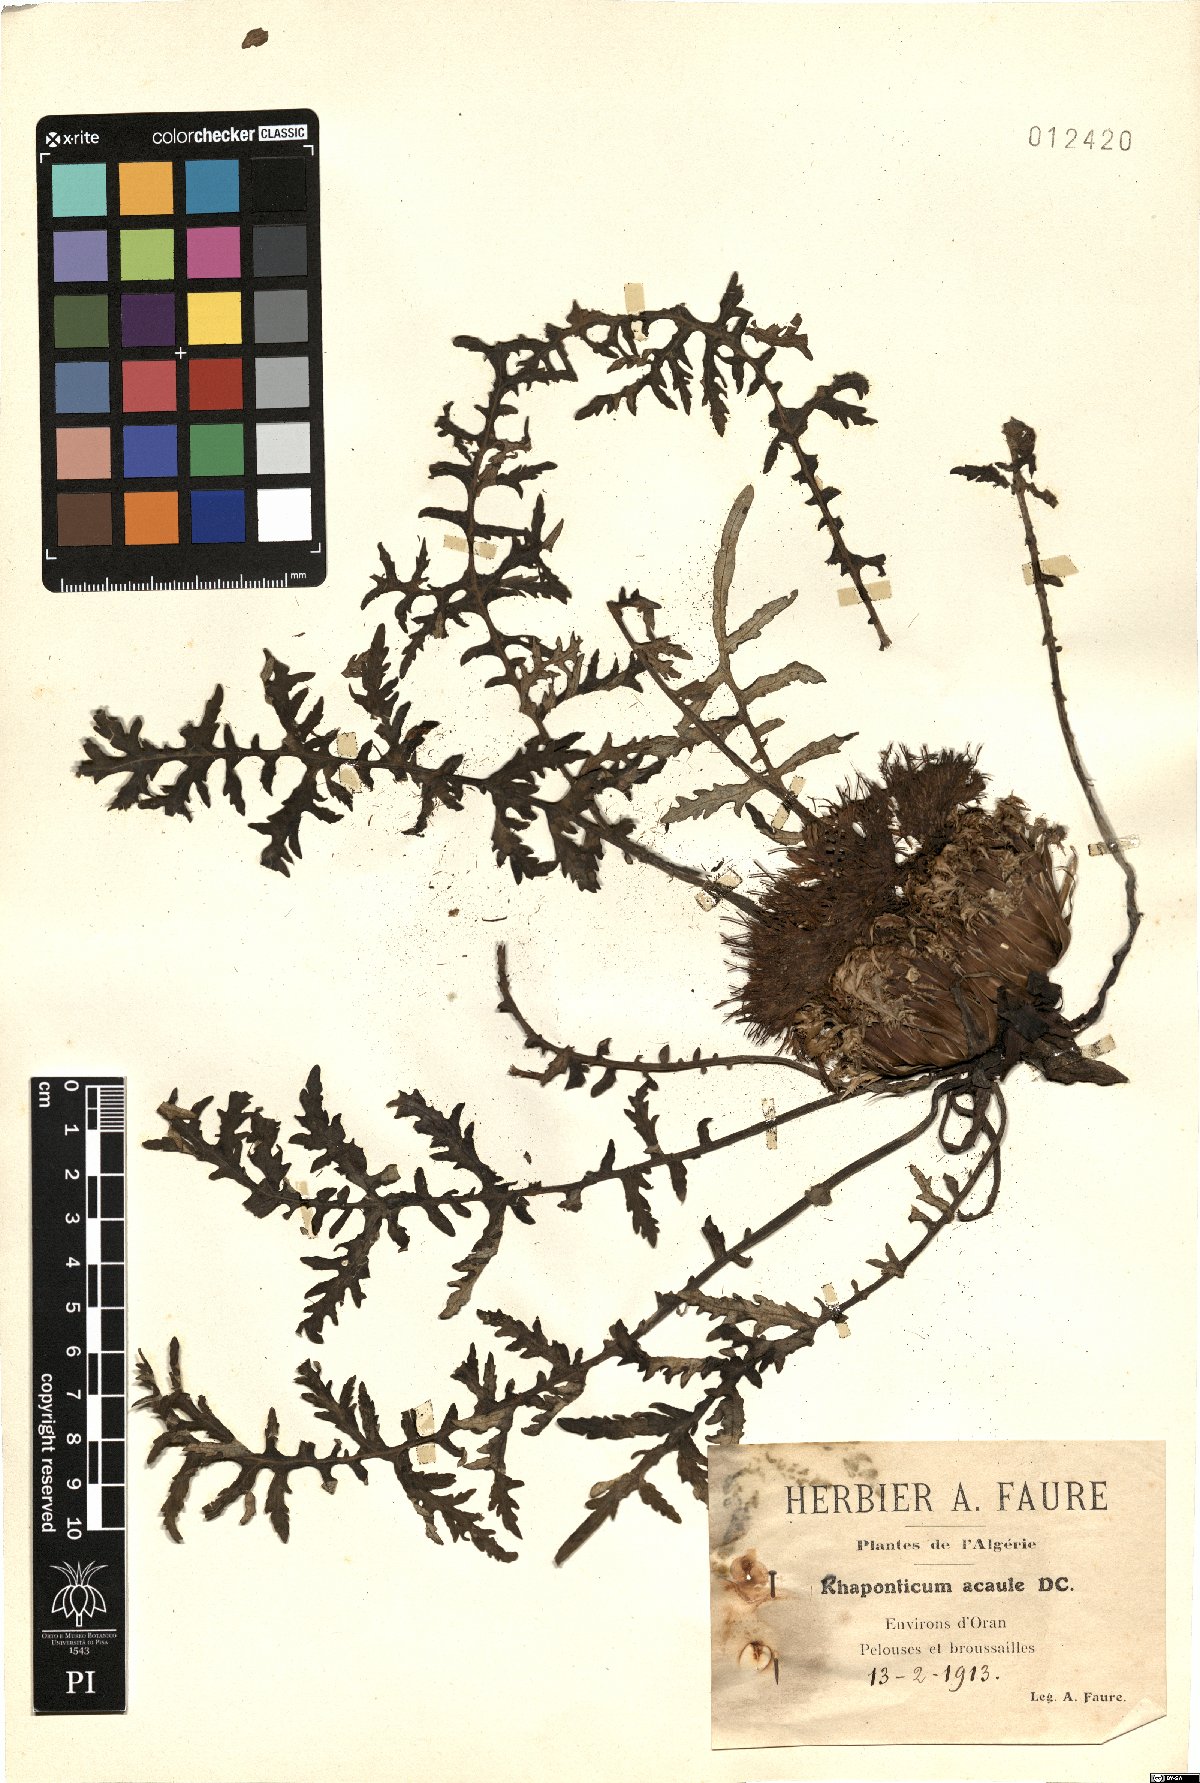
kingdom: Plantae
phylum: Tracheophyta
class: Magnoliopsida
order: Asterales
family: Asteraceae
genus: Leuzea
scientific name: Leuzea acaulis
